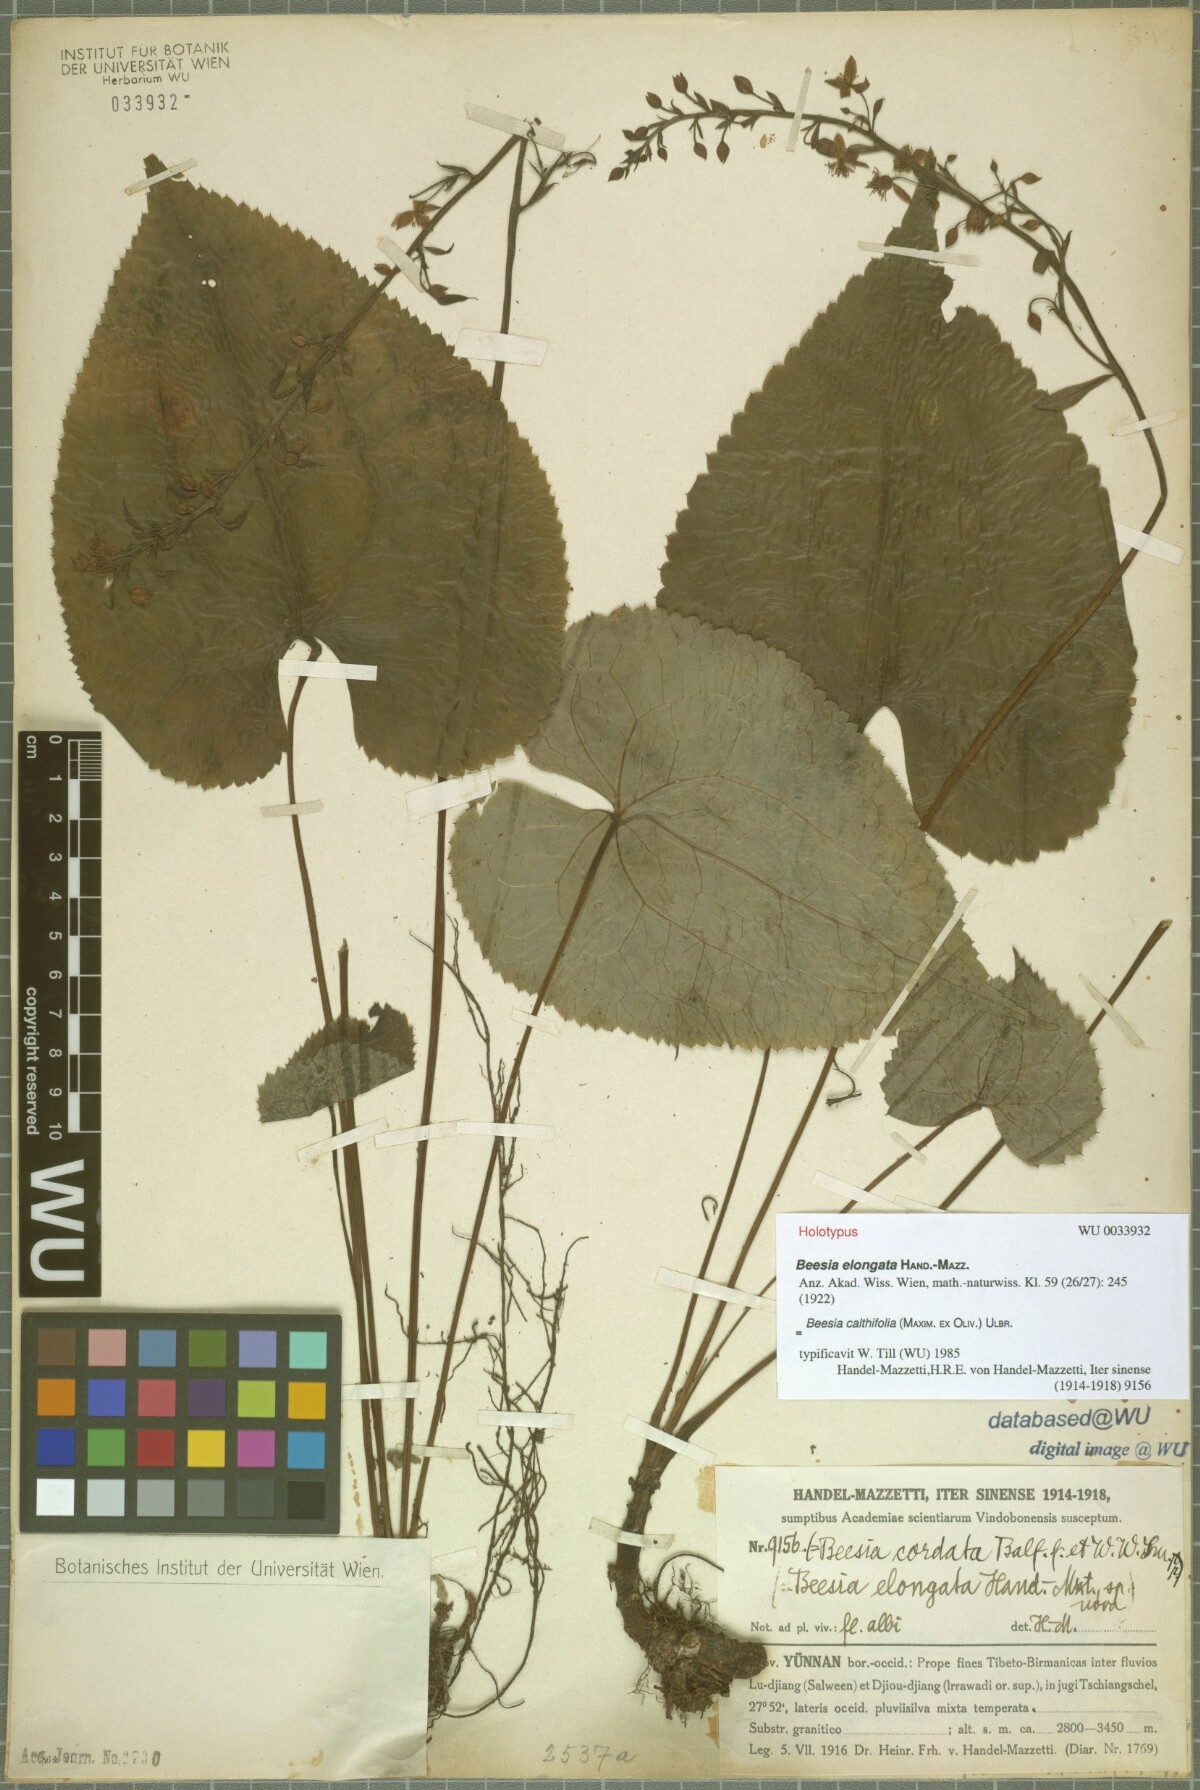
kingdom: Plantae
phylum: Tracheophyta
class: Magnoliopsida
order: Ranunculales
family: Ranunculaceae
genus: Beesia
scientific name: Beesia calthifolia
